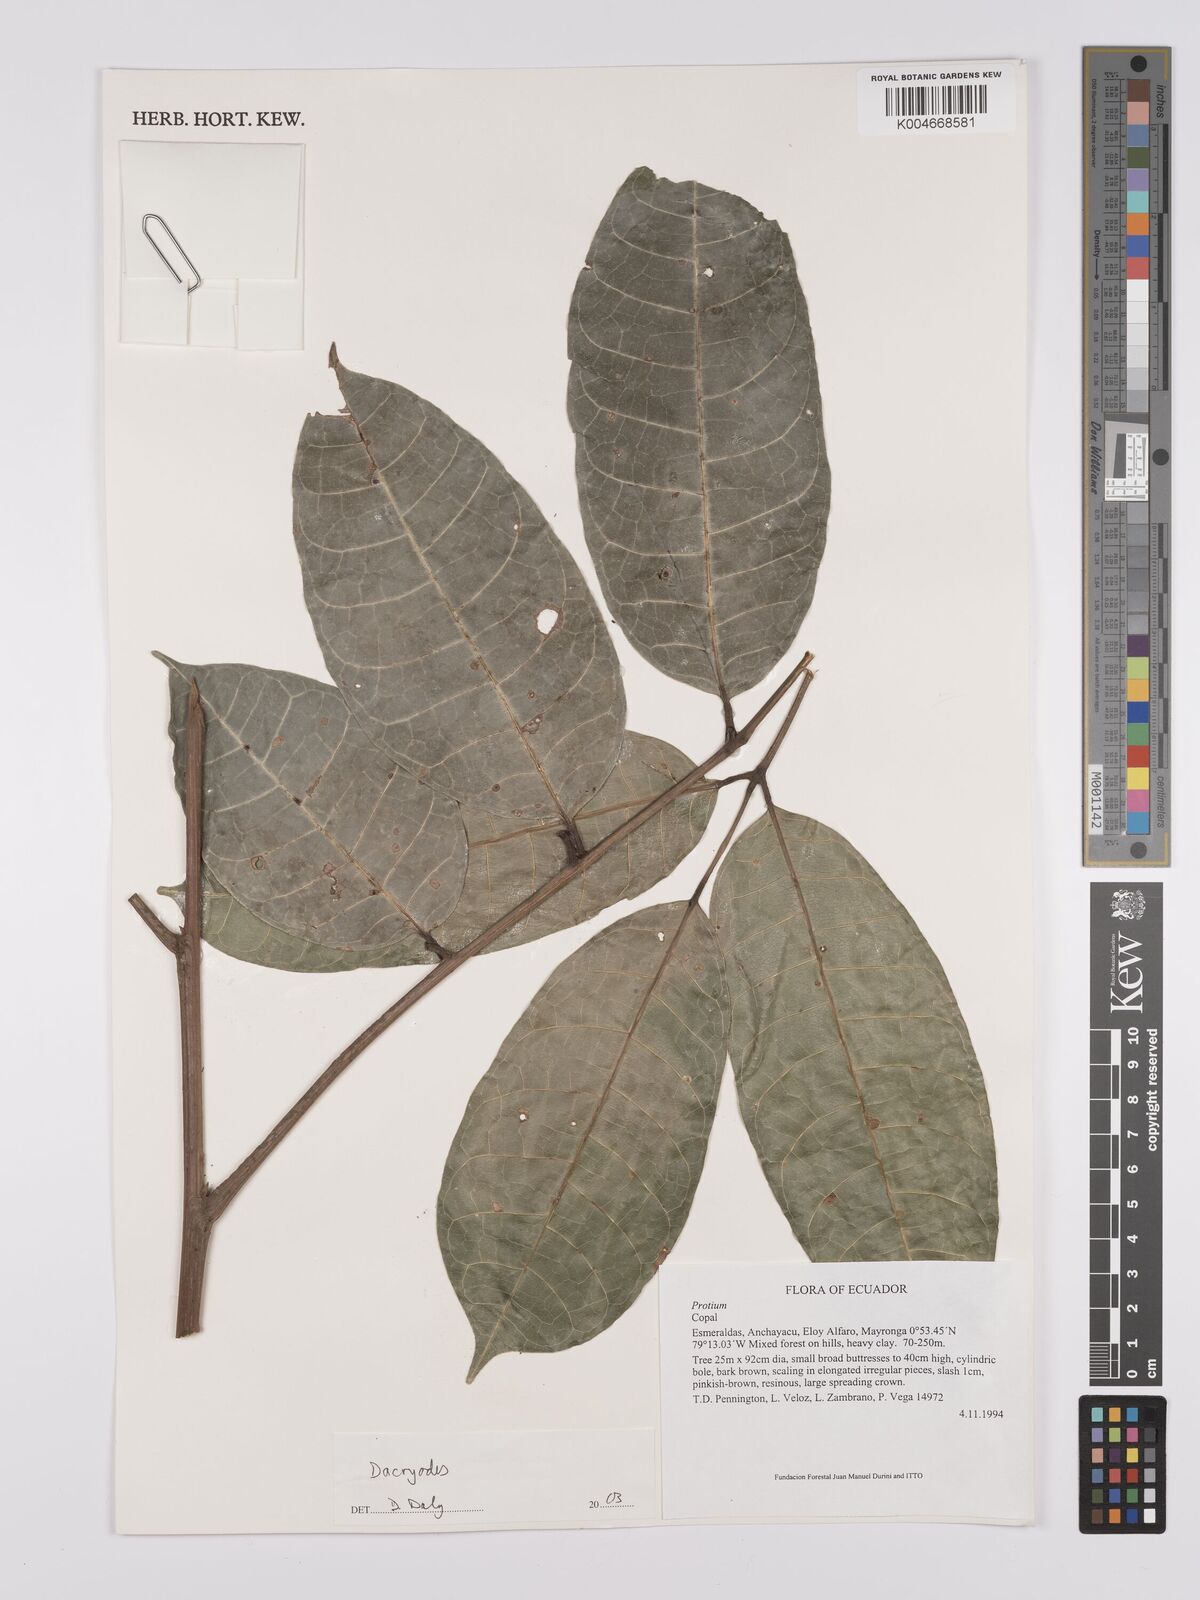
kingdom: Plantae
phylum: Tracheophyta
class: Magnoliopsida
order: Sapindales
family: Burseraceae
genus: Dacryodes
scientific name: Dacryodes
